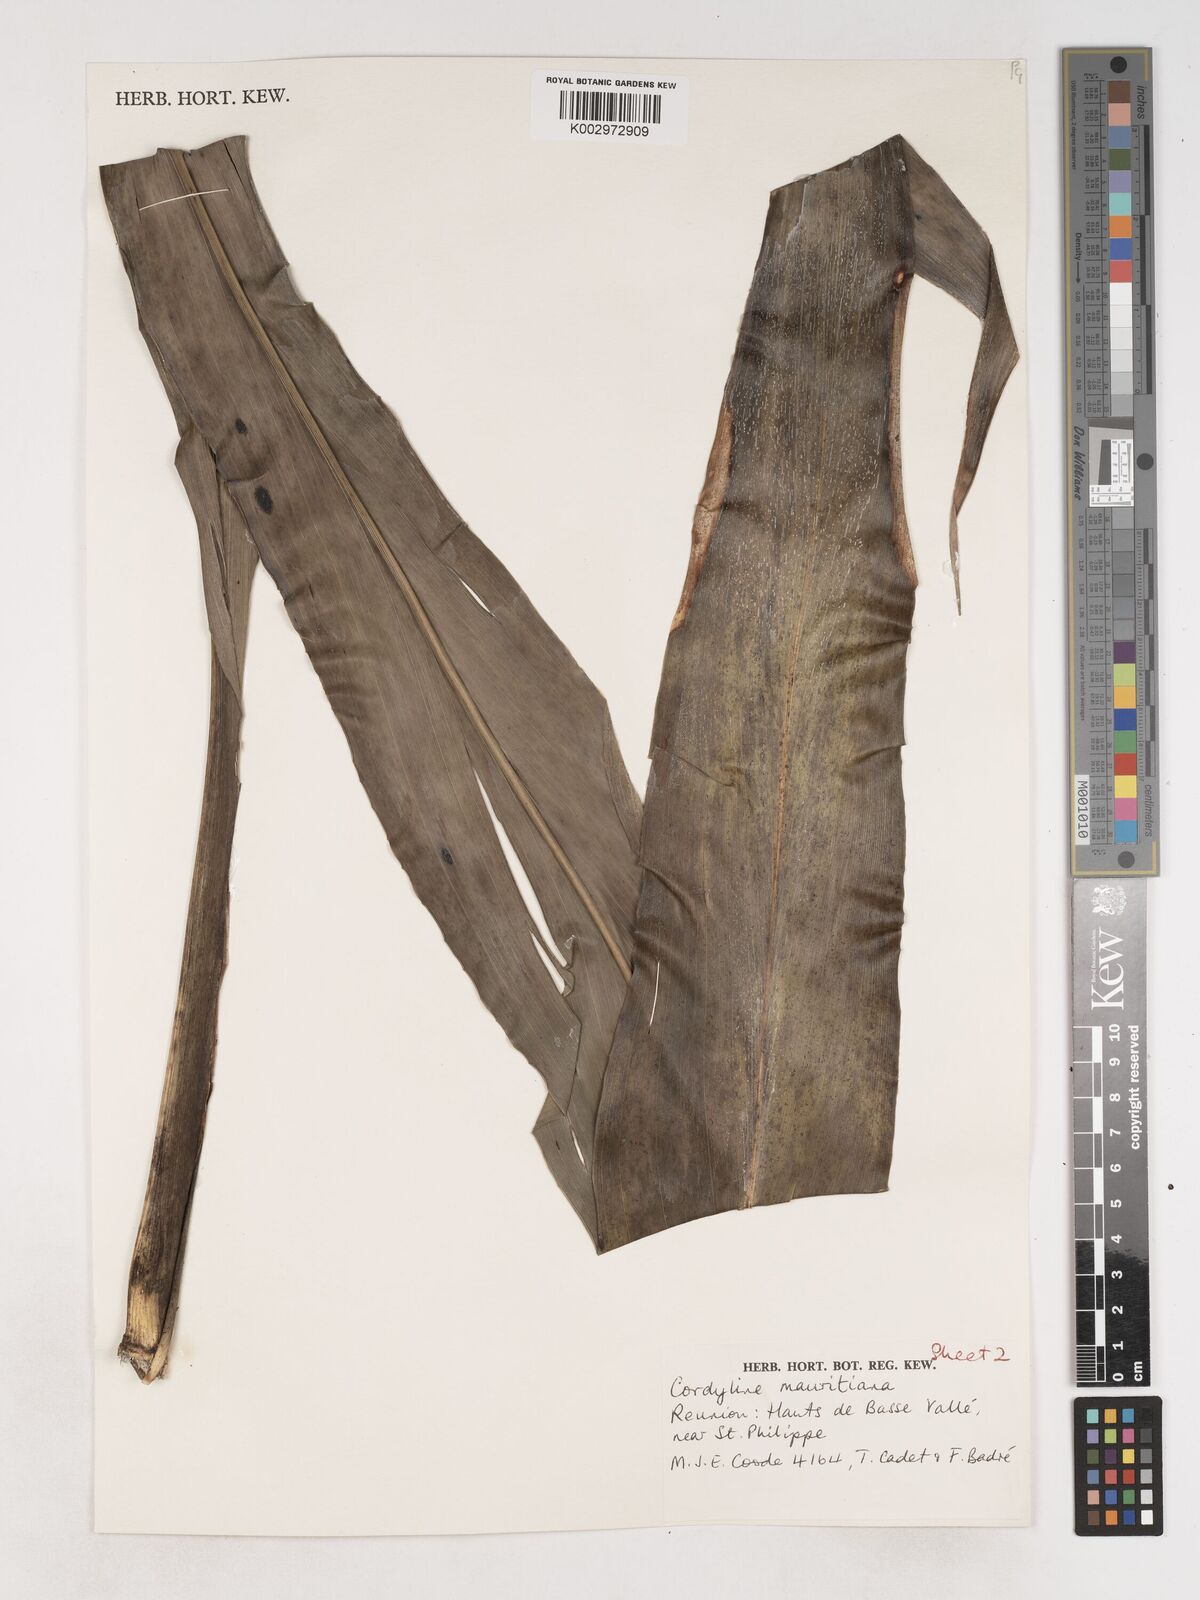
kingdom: Plantae
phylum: Tracheophyta
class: Liliopsida
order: Asparagales
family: Asparagaceae
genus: Cordyline
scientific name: Cordyline mauritiana
